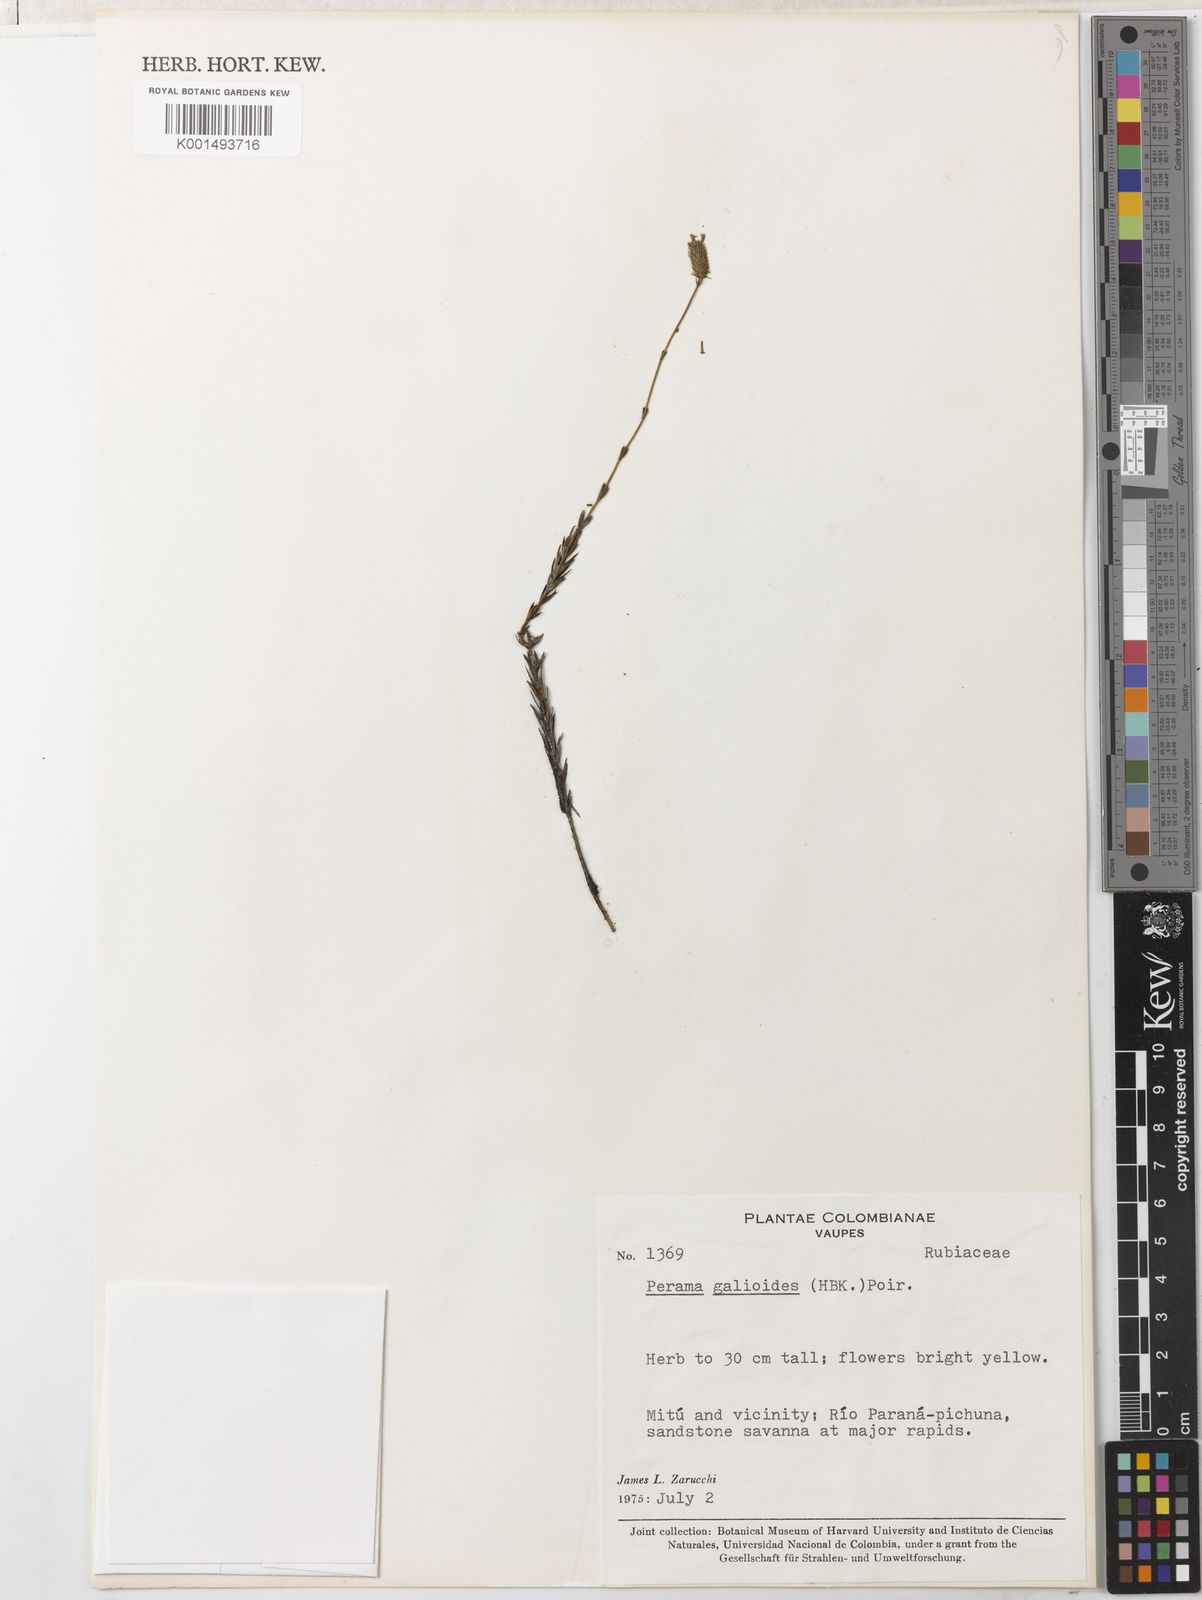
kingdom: Plantae
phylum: Tracheophyta
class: Magnoliopsida
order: Gentianales
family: Rubiaceae
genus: Perama
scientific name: Perama galioides
